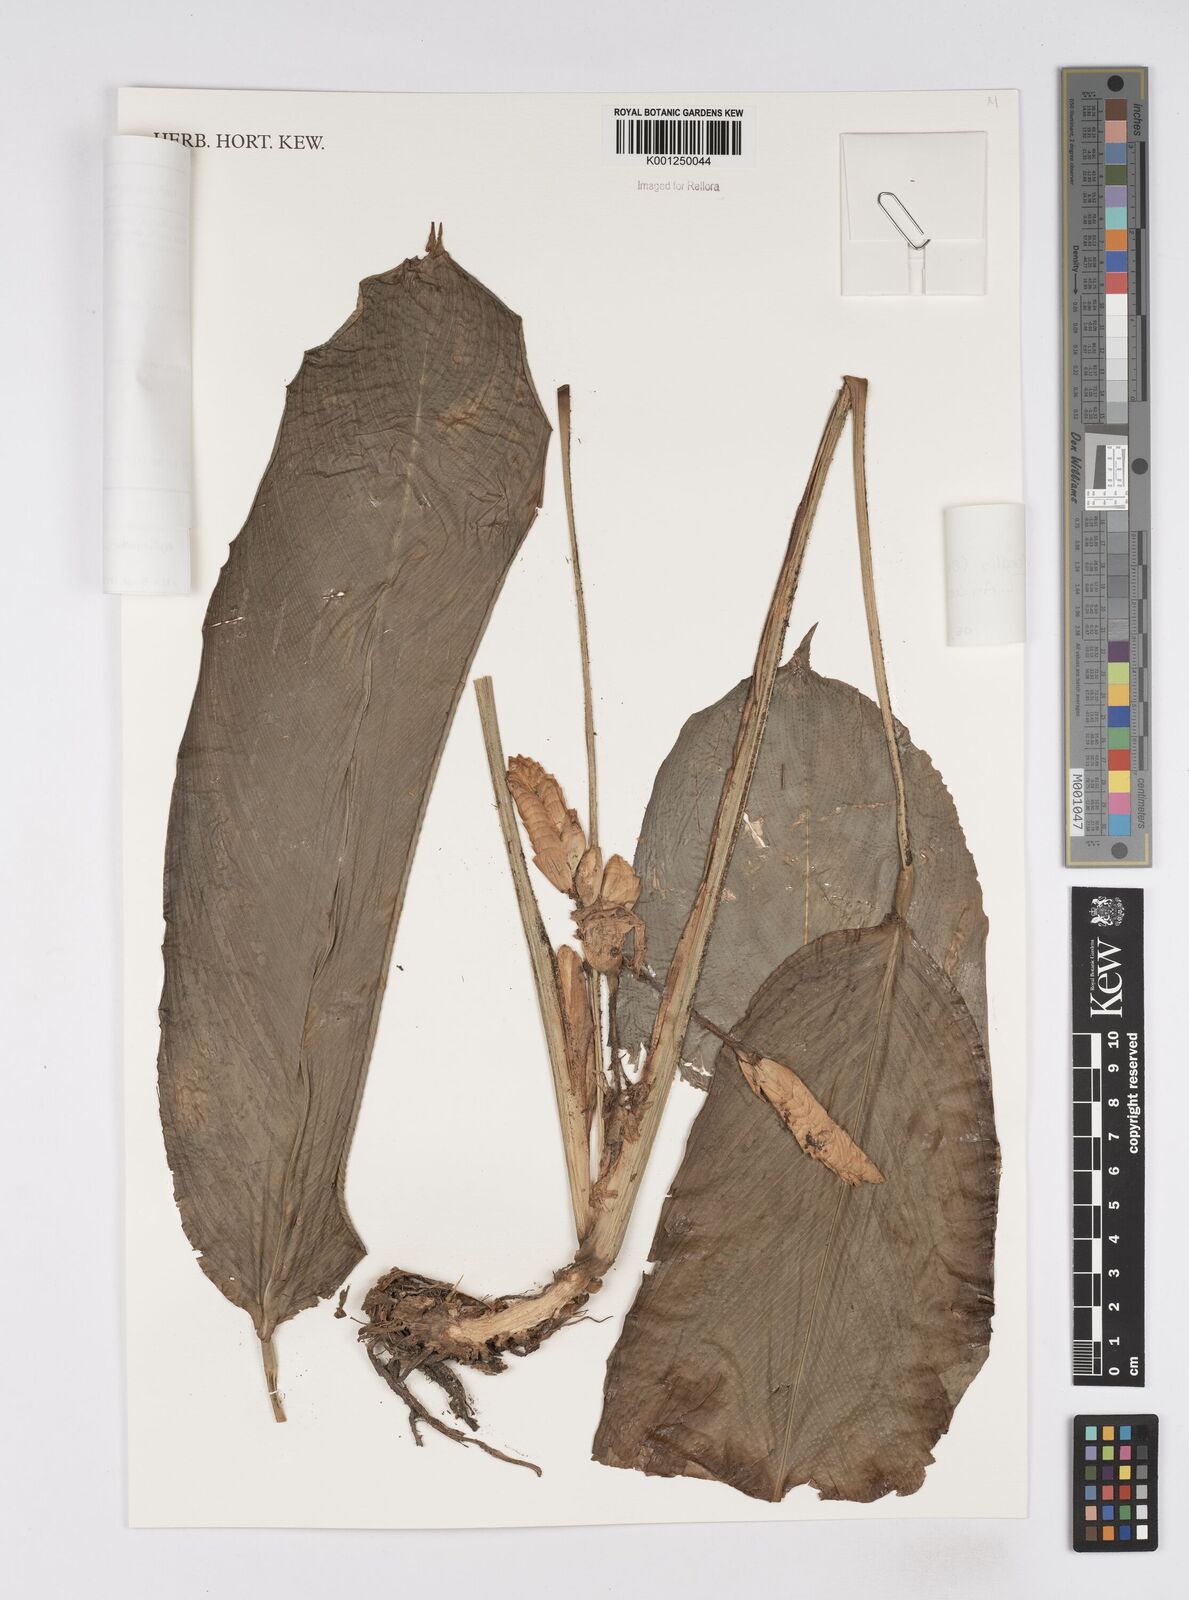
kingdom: Plantae
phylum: Tracheophyta
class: Liliopsida
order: Zingiberales
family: Marantaceae
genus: Saranthe
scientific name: Saranthe madagascariensis
